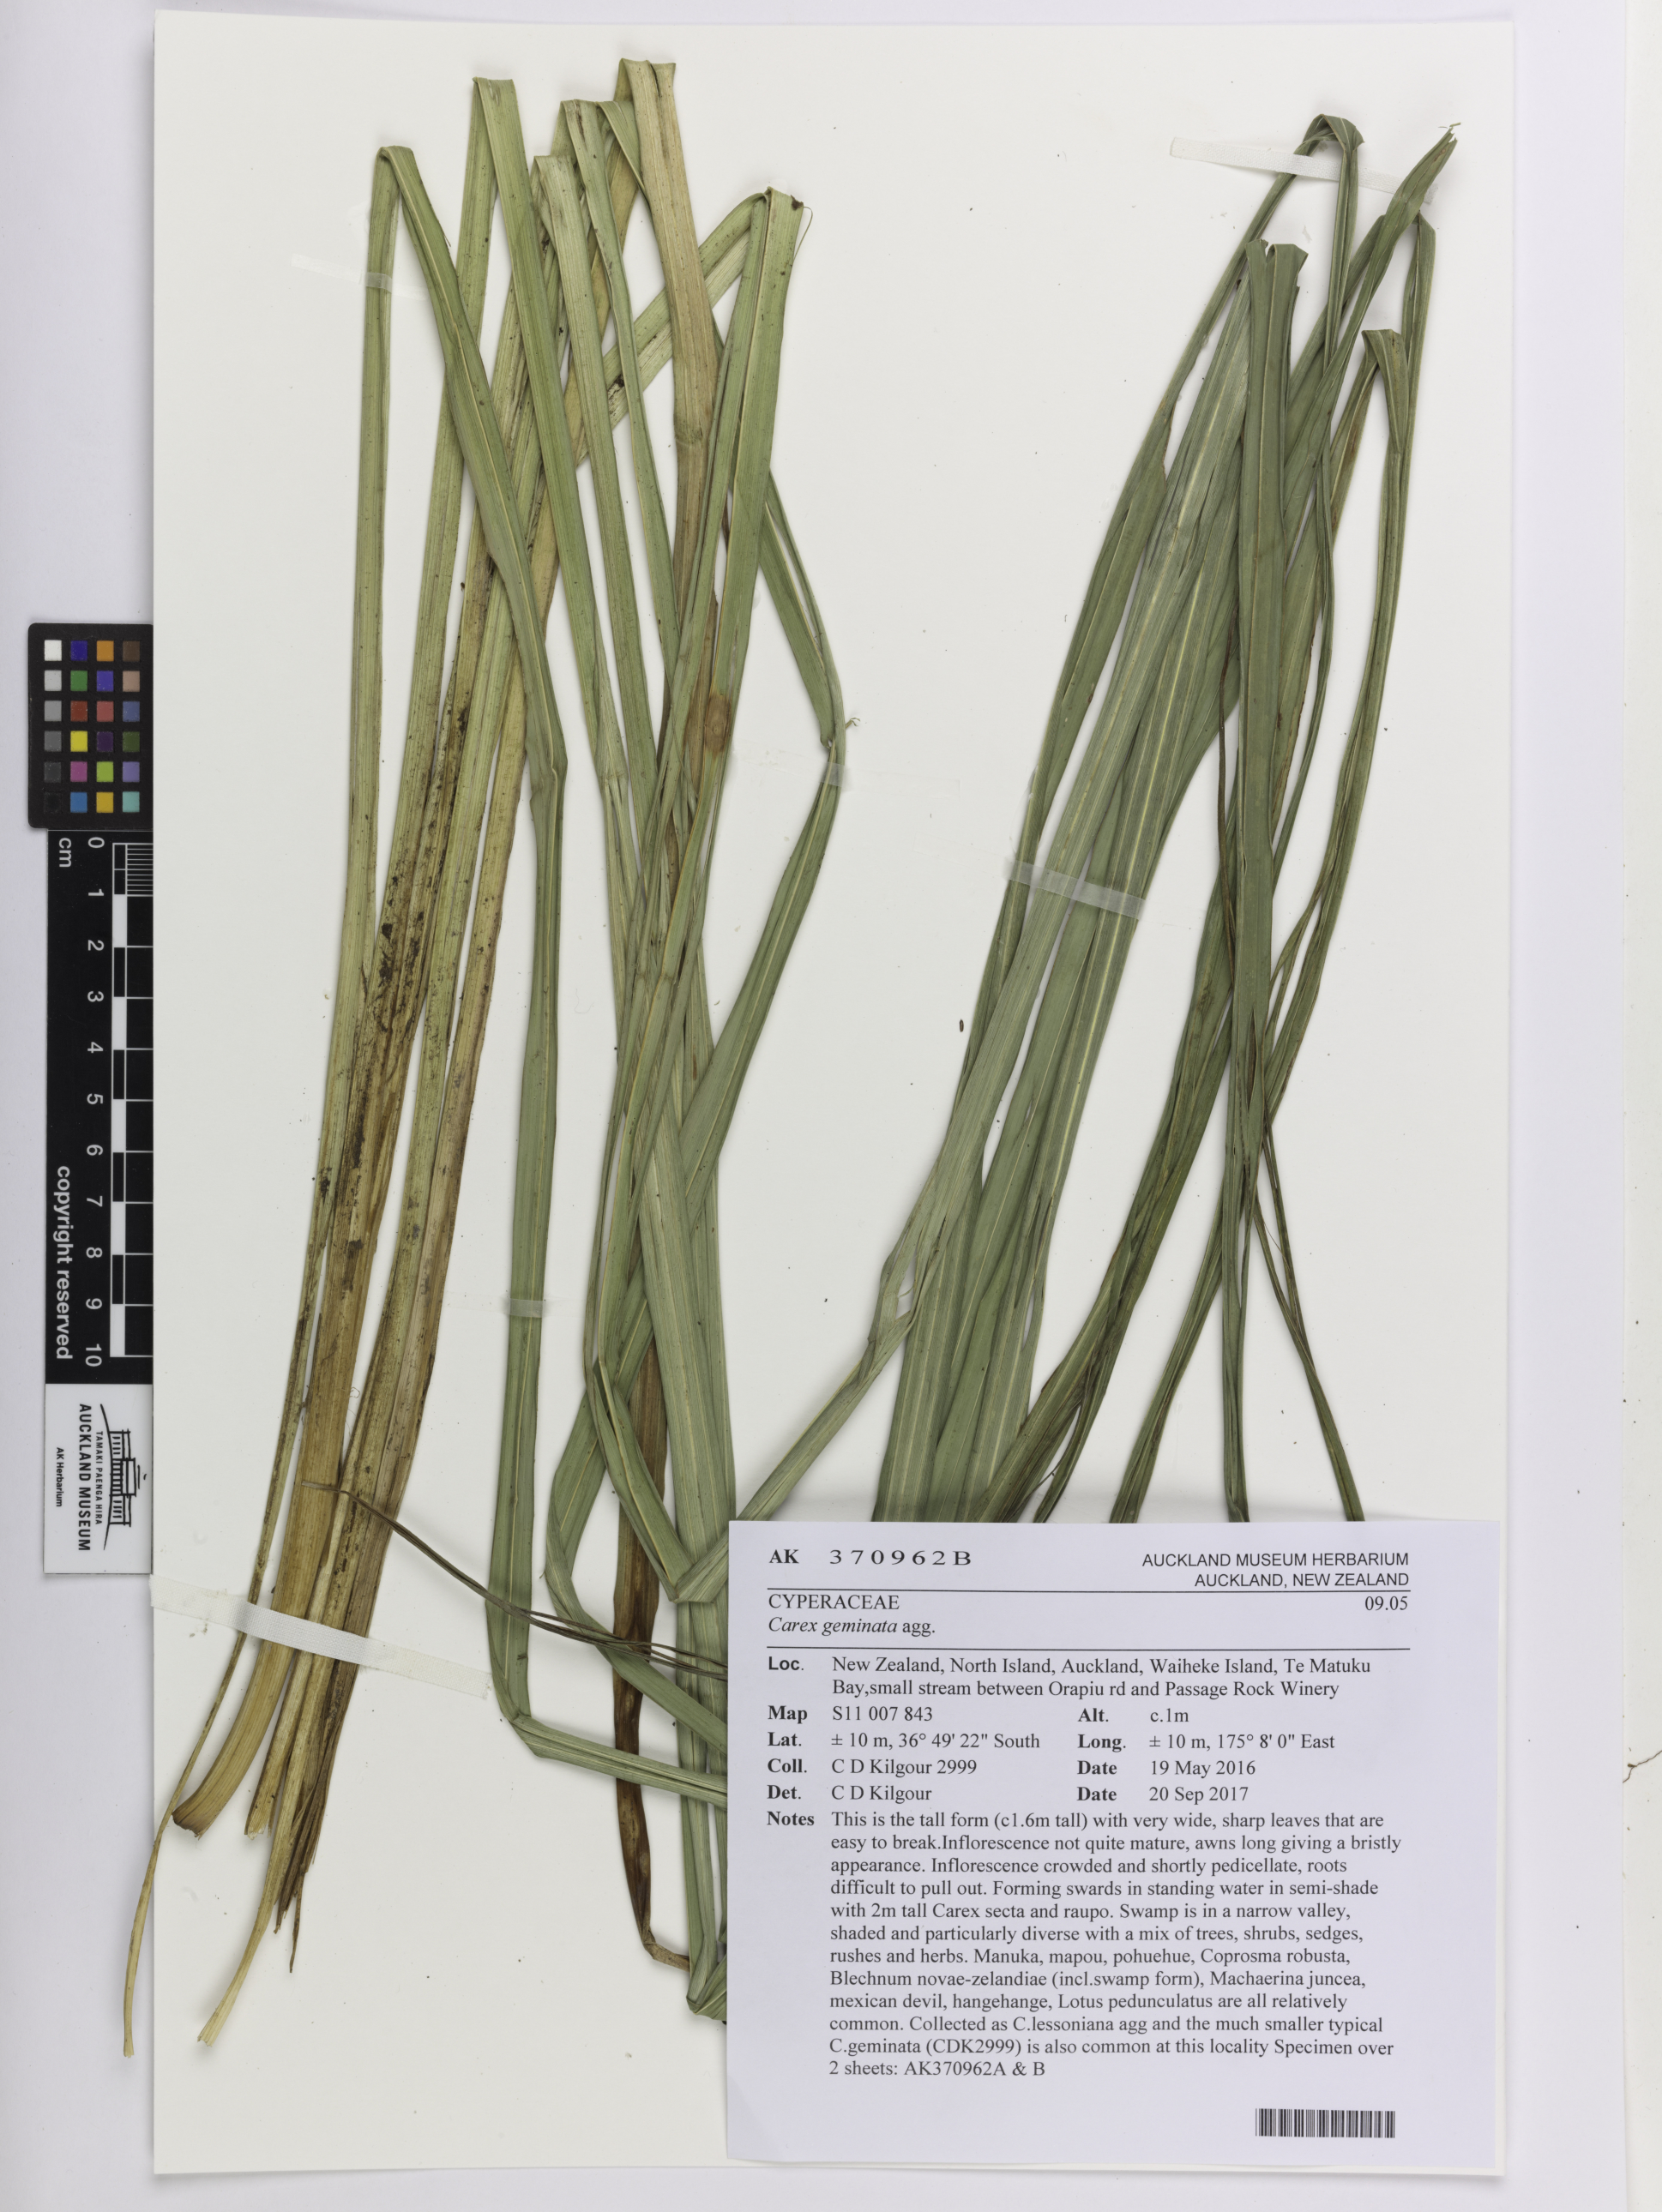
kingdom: Plantae
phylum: Tracheophyta
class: Liliopsida
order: Poales
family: Cyperaceae
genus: Carex
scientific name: Carex geminata
